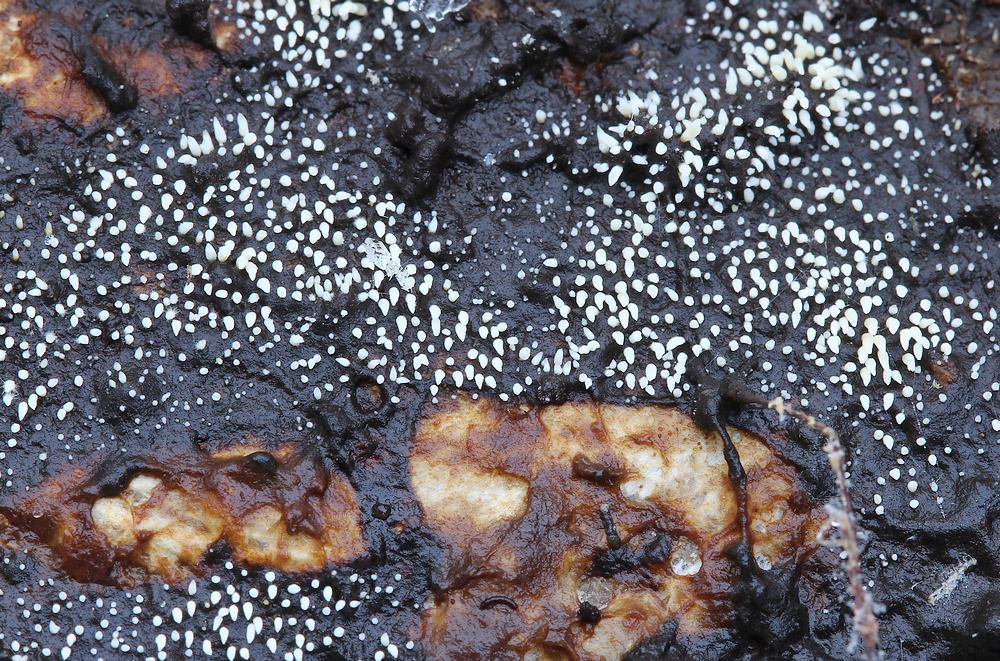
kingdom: Fungi
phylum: Basidiomycota
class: Agaricomycetes
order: Agaricales
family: Clavariaceae
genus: Mucronella
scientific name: Mucronella calva
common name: hvid hængepig
